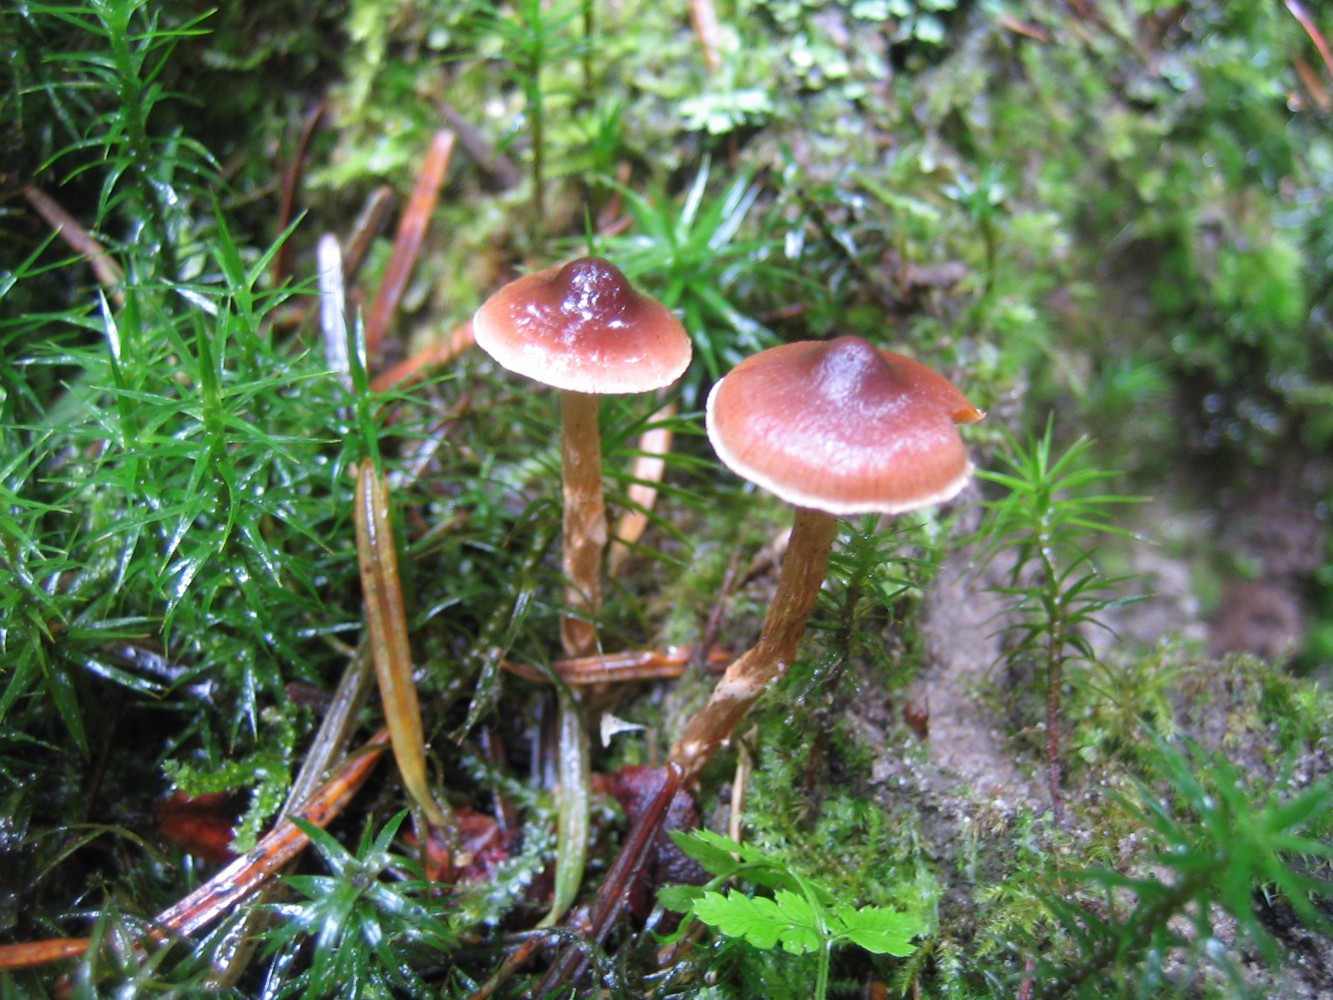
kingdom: Fungi
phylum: Basidiomycota
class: Agaricomycetes
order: Agaricales
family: Cortinariaceae
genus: Cortinarius
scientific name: Cortinarius
